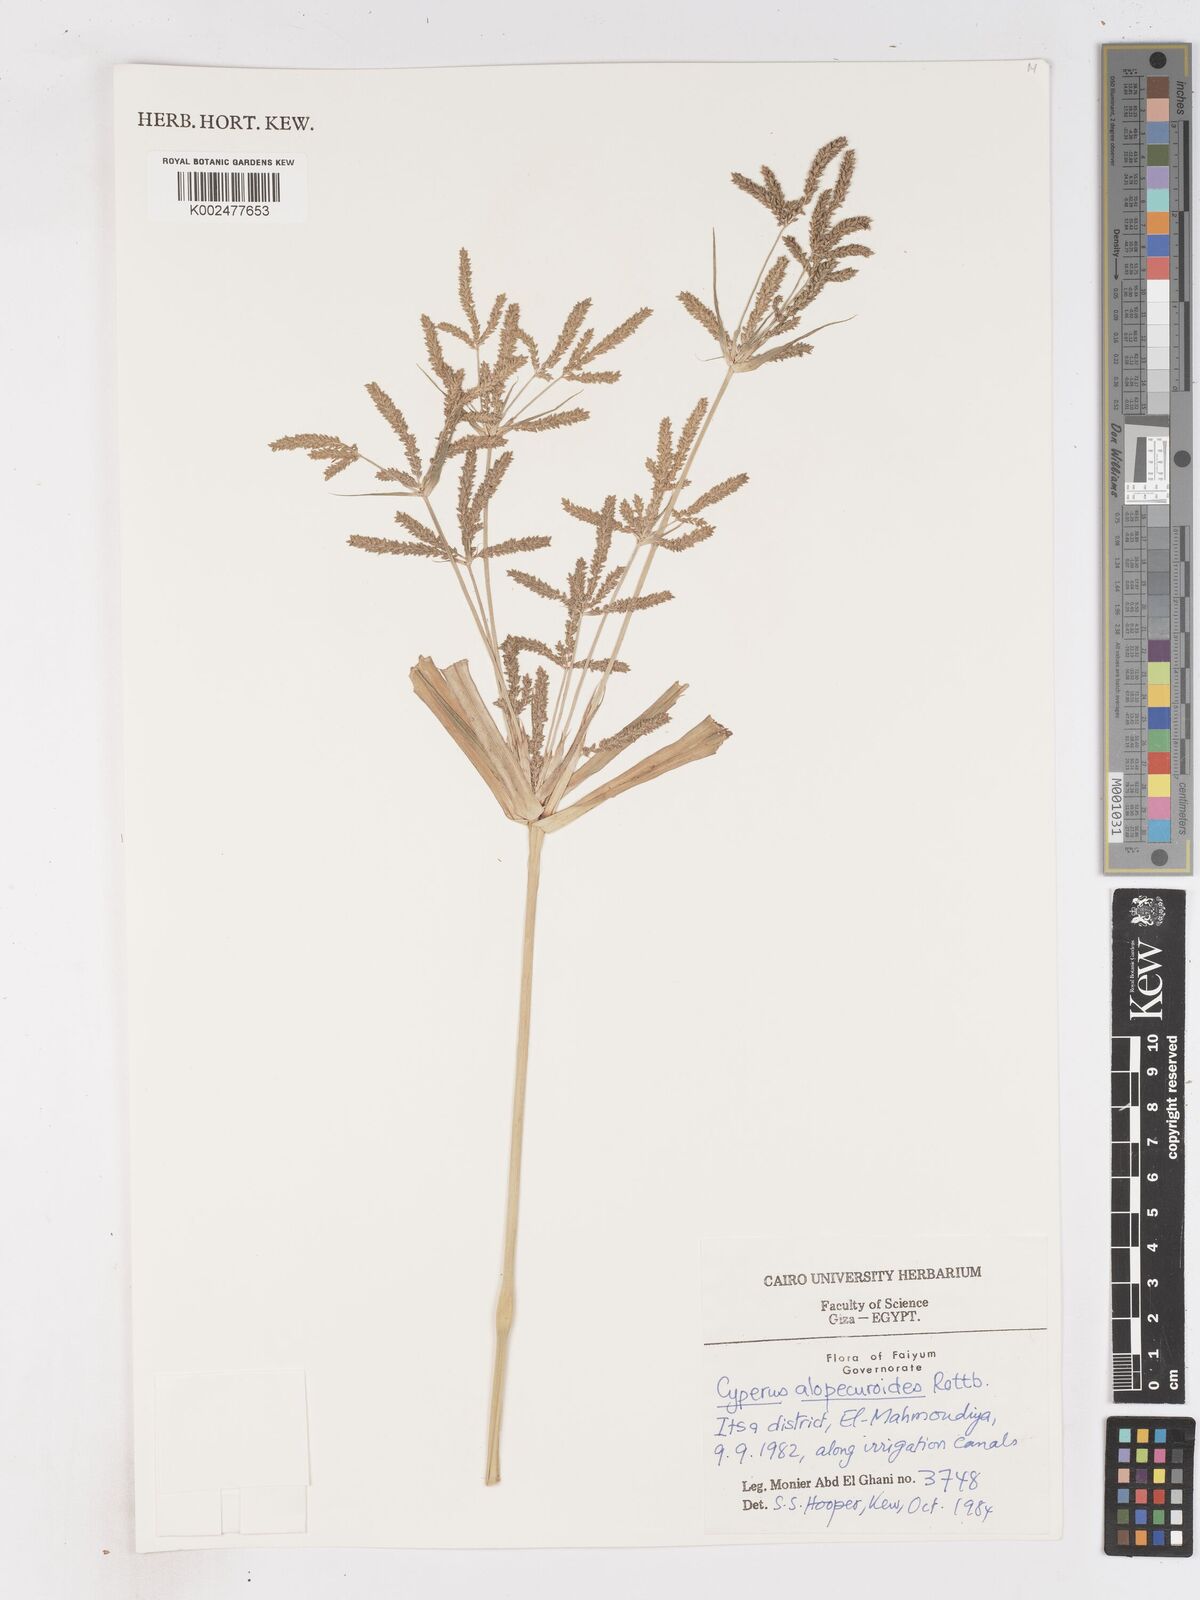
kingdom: Plantae
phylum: Tracheophyta
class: Liliopsida
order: Poales
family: Cyperaceae
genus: Cyperus
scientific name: Cyperus alopecuroides
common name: Foxtail flatsedge
